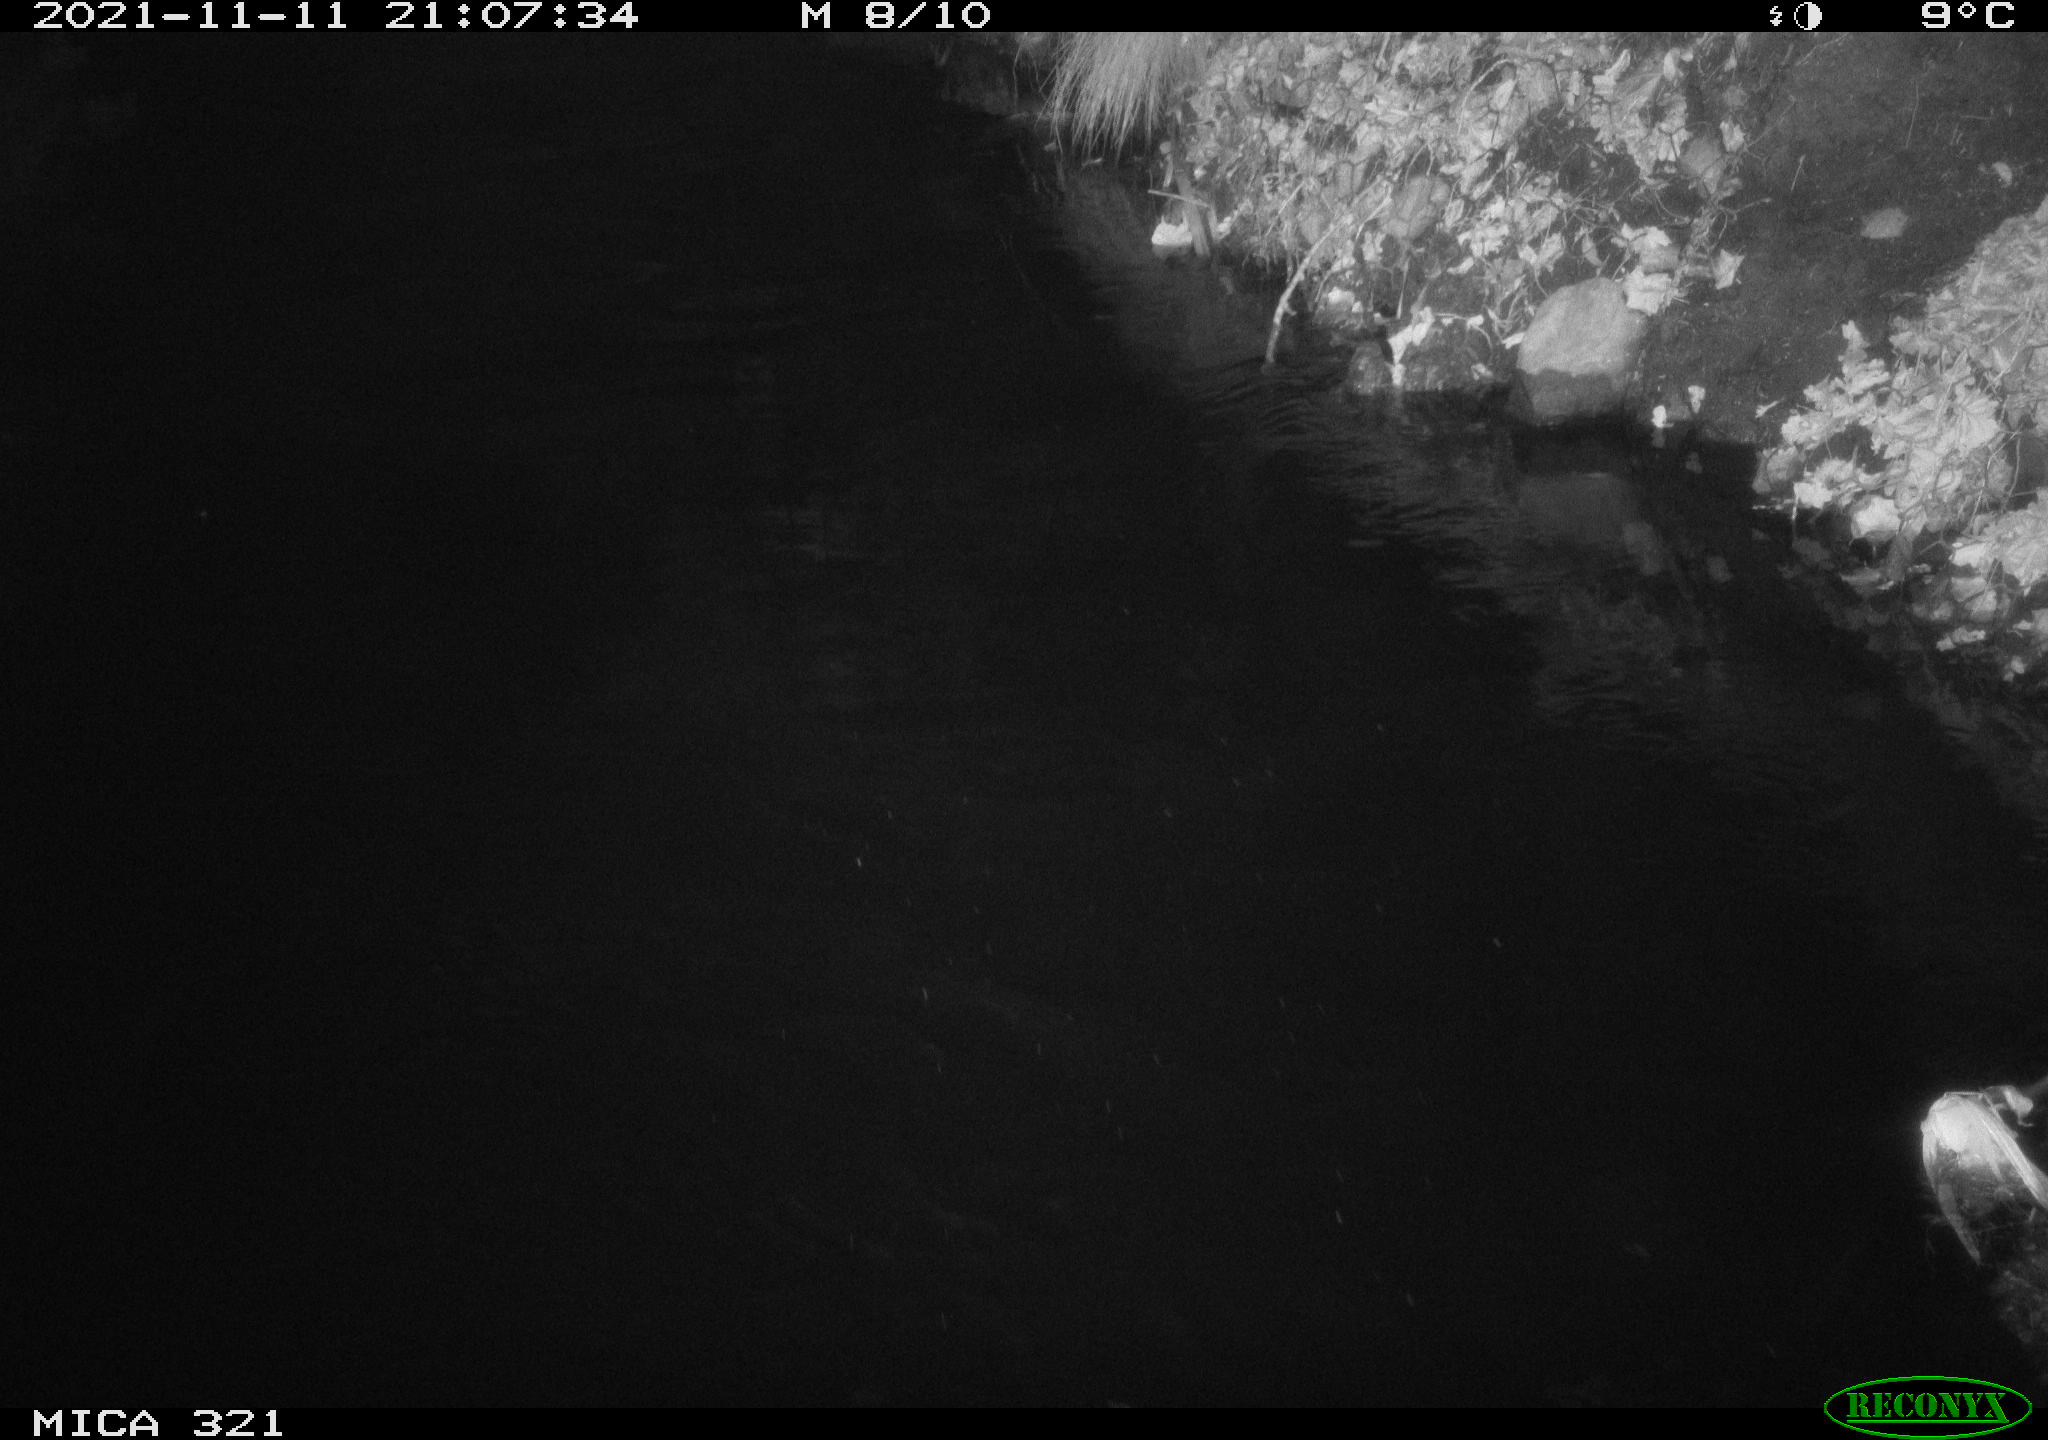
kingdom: Animalia
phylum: Chordata
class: Aves
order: Anseriformes
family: Anatidae
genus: Anas
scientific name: Anas platyrhynchos
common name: Mallard
